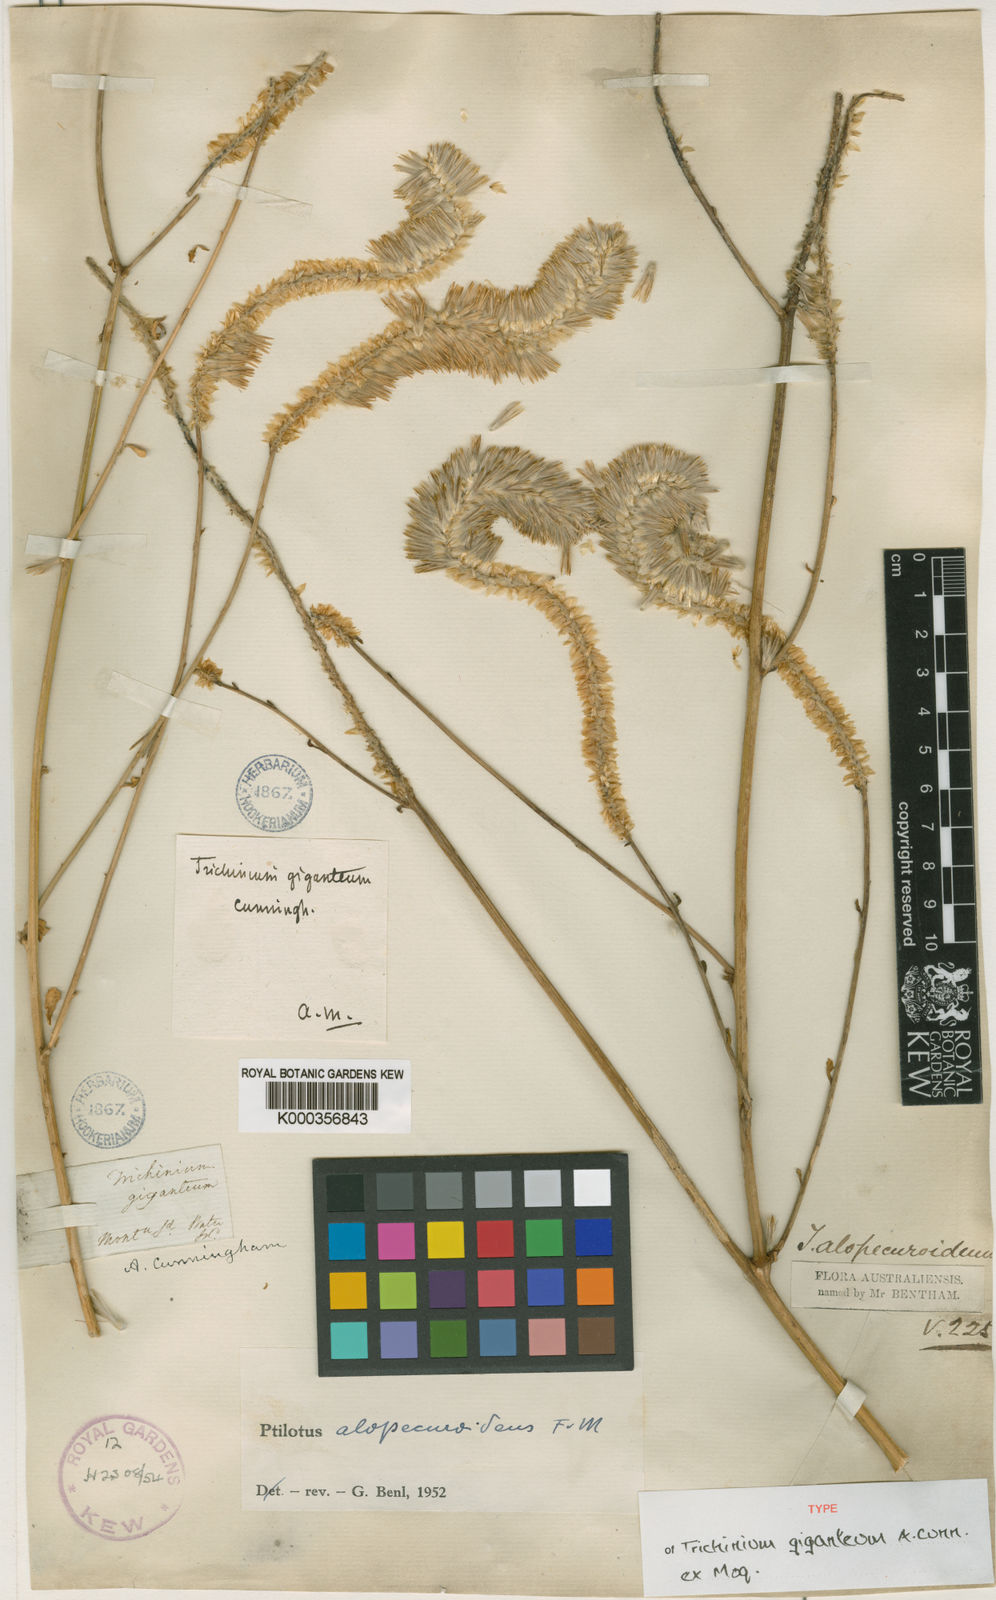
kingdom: Plantae
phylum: Tracheophyta
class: Magnoliopsida
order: Caryophyllales
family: Amaranthaceae
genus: Ptilotus
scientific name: Ptilotus polystachyus
